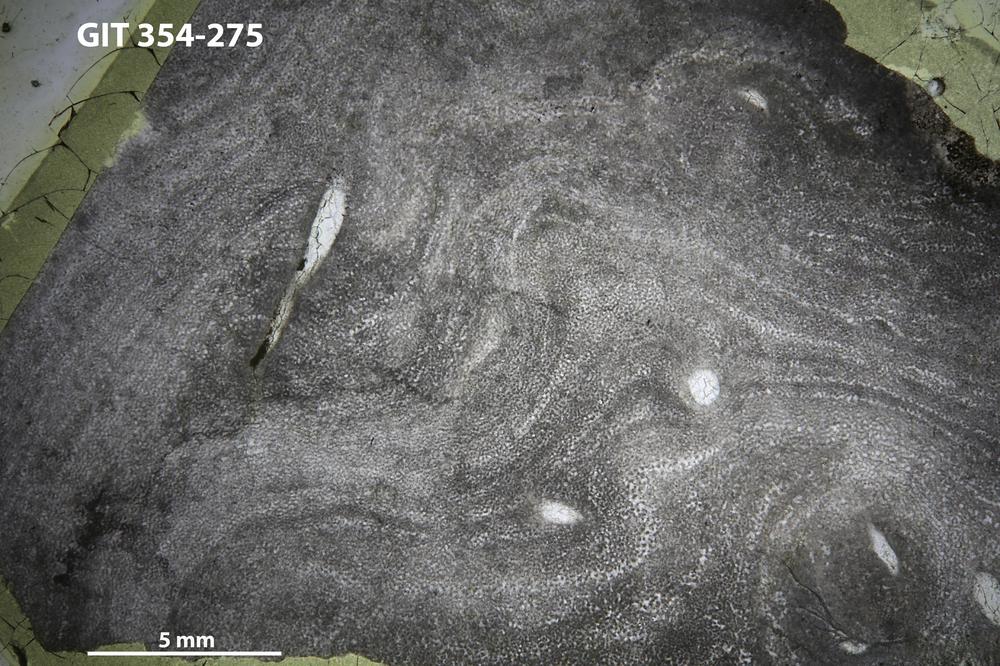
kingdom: Animalia
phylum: Porifera
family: Ecclimadictyidae
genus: Ecclimadictyon
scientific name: Ecclimadictyon Clathrodictyon microvesiculosum
